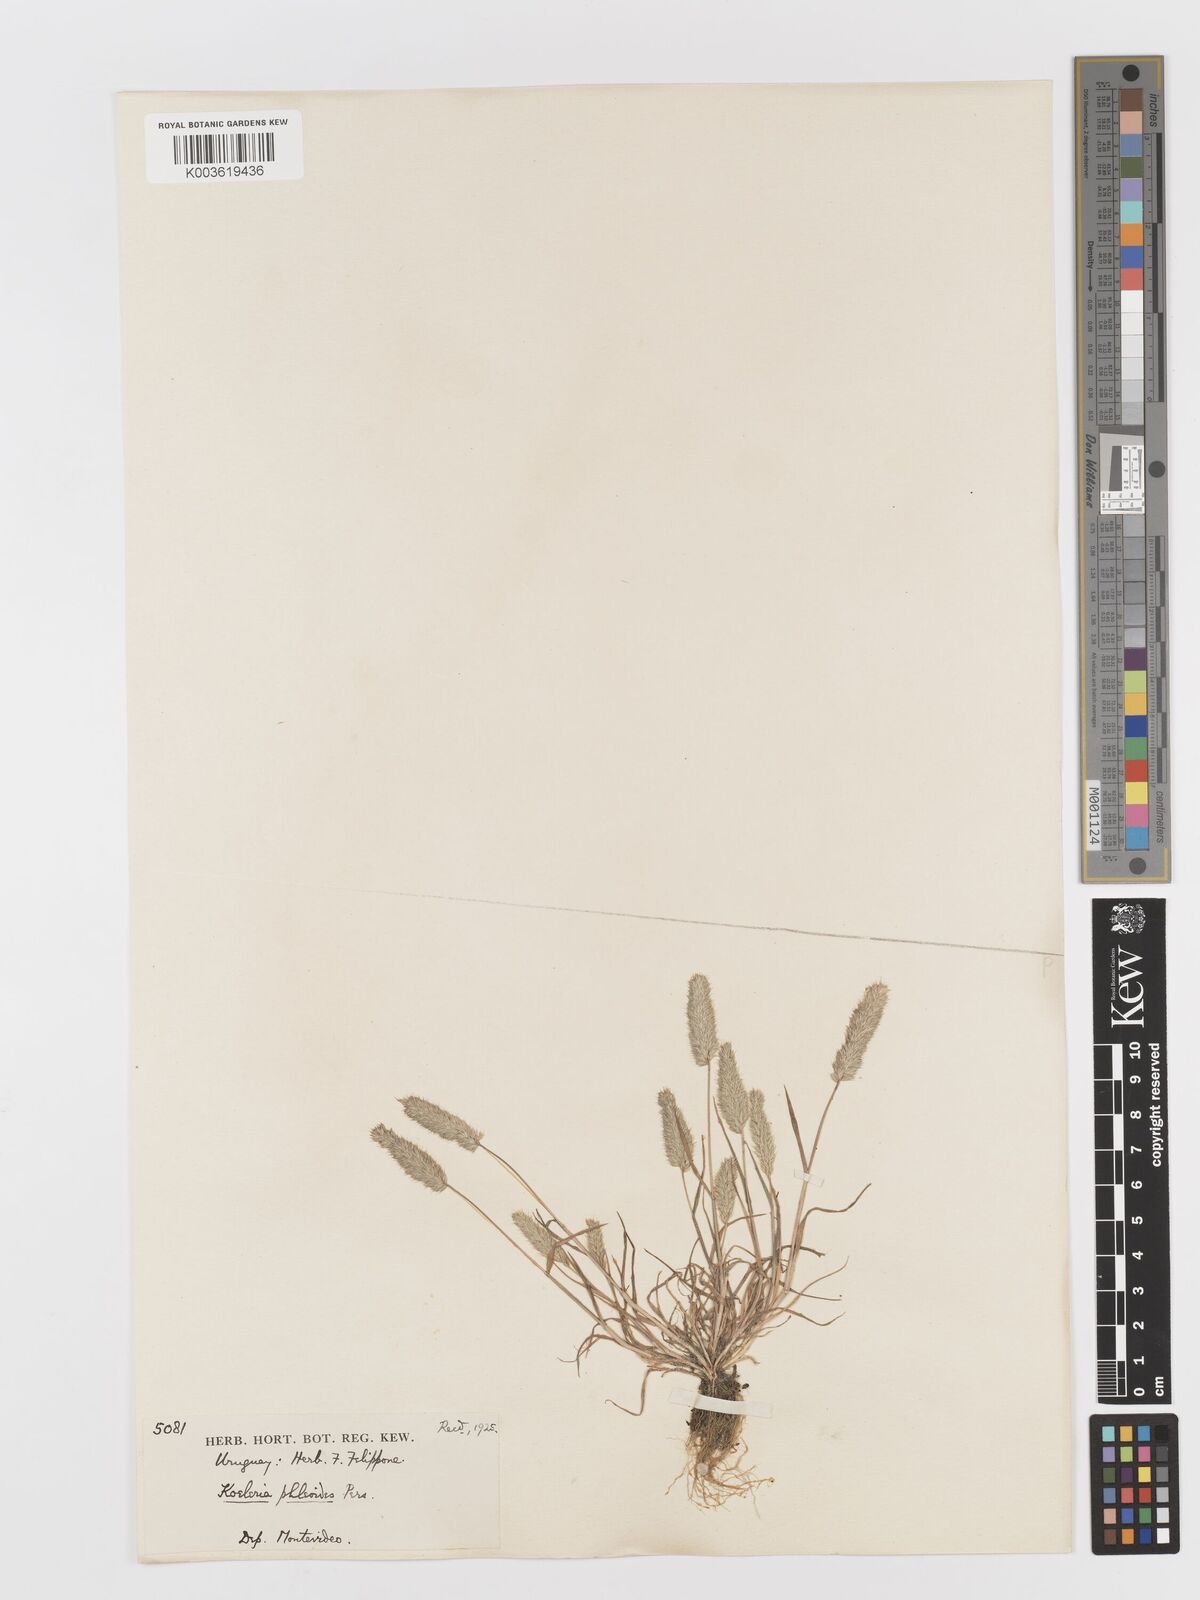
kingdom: Plantae
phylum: Tracheophyta
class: Liliopsida
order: Poales
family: Poaceae
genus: Rostraria
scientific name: Rostraria cristata
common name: Mediterranean hair-grass
